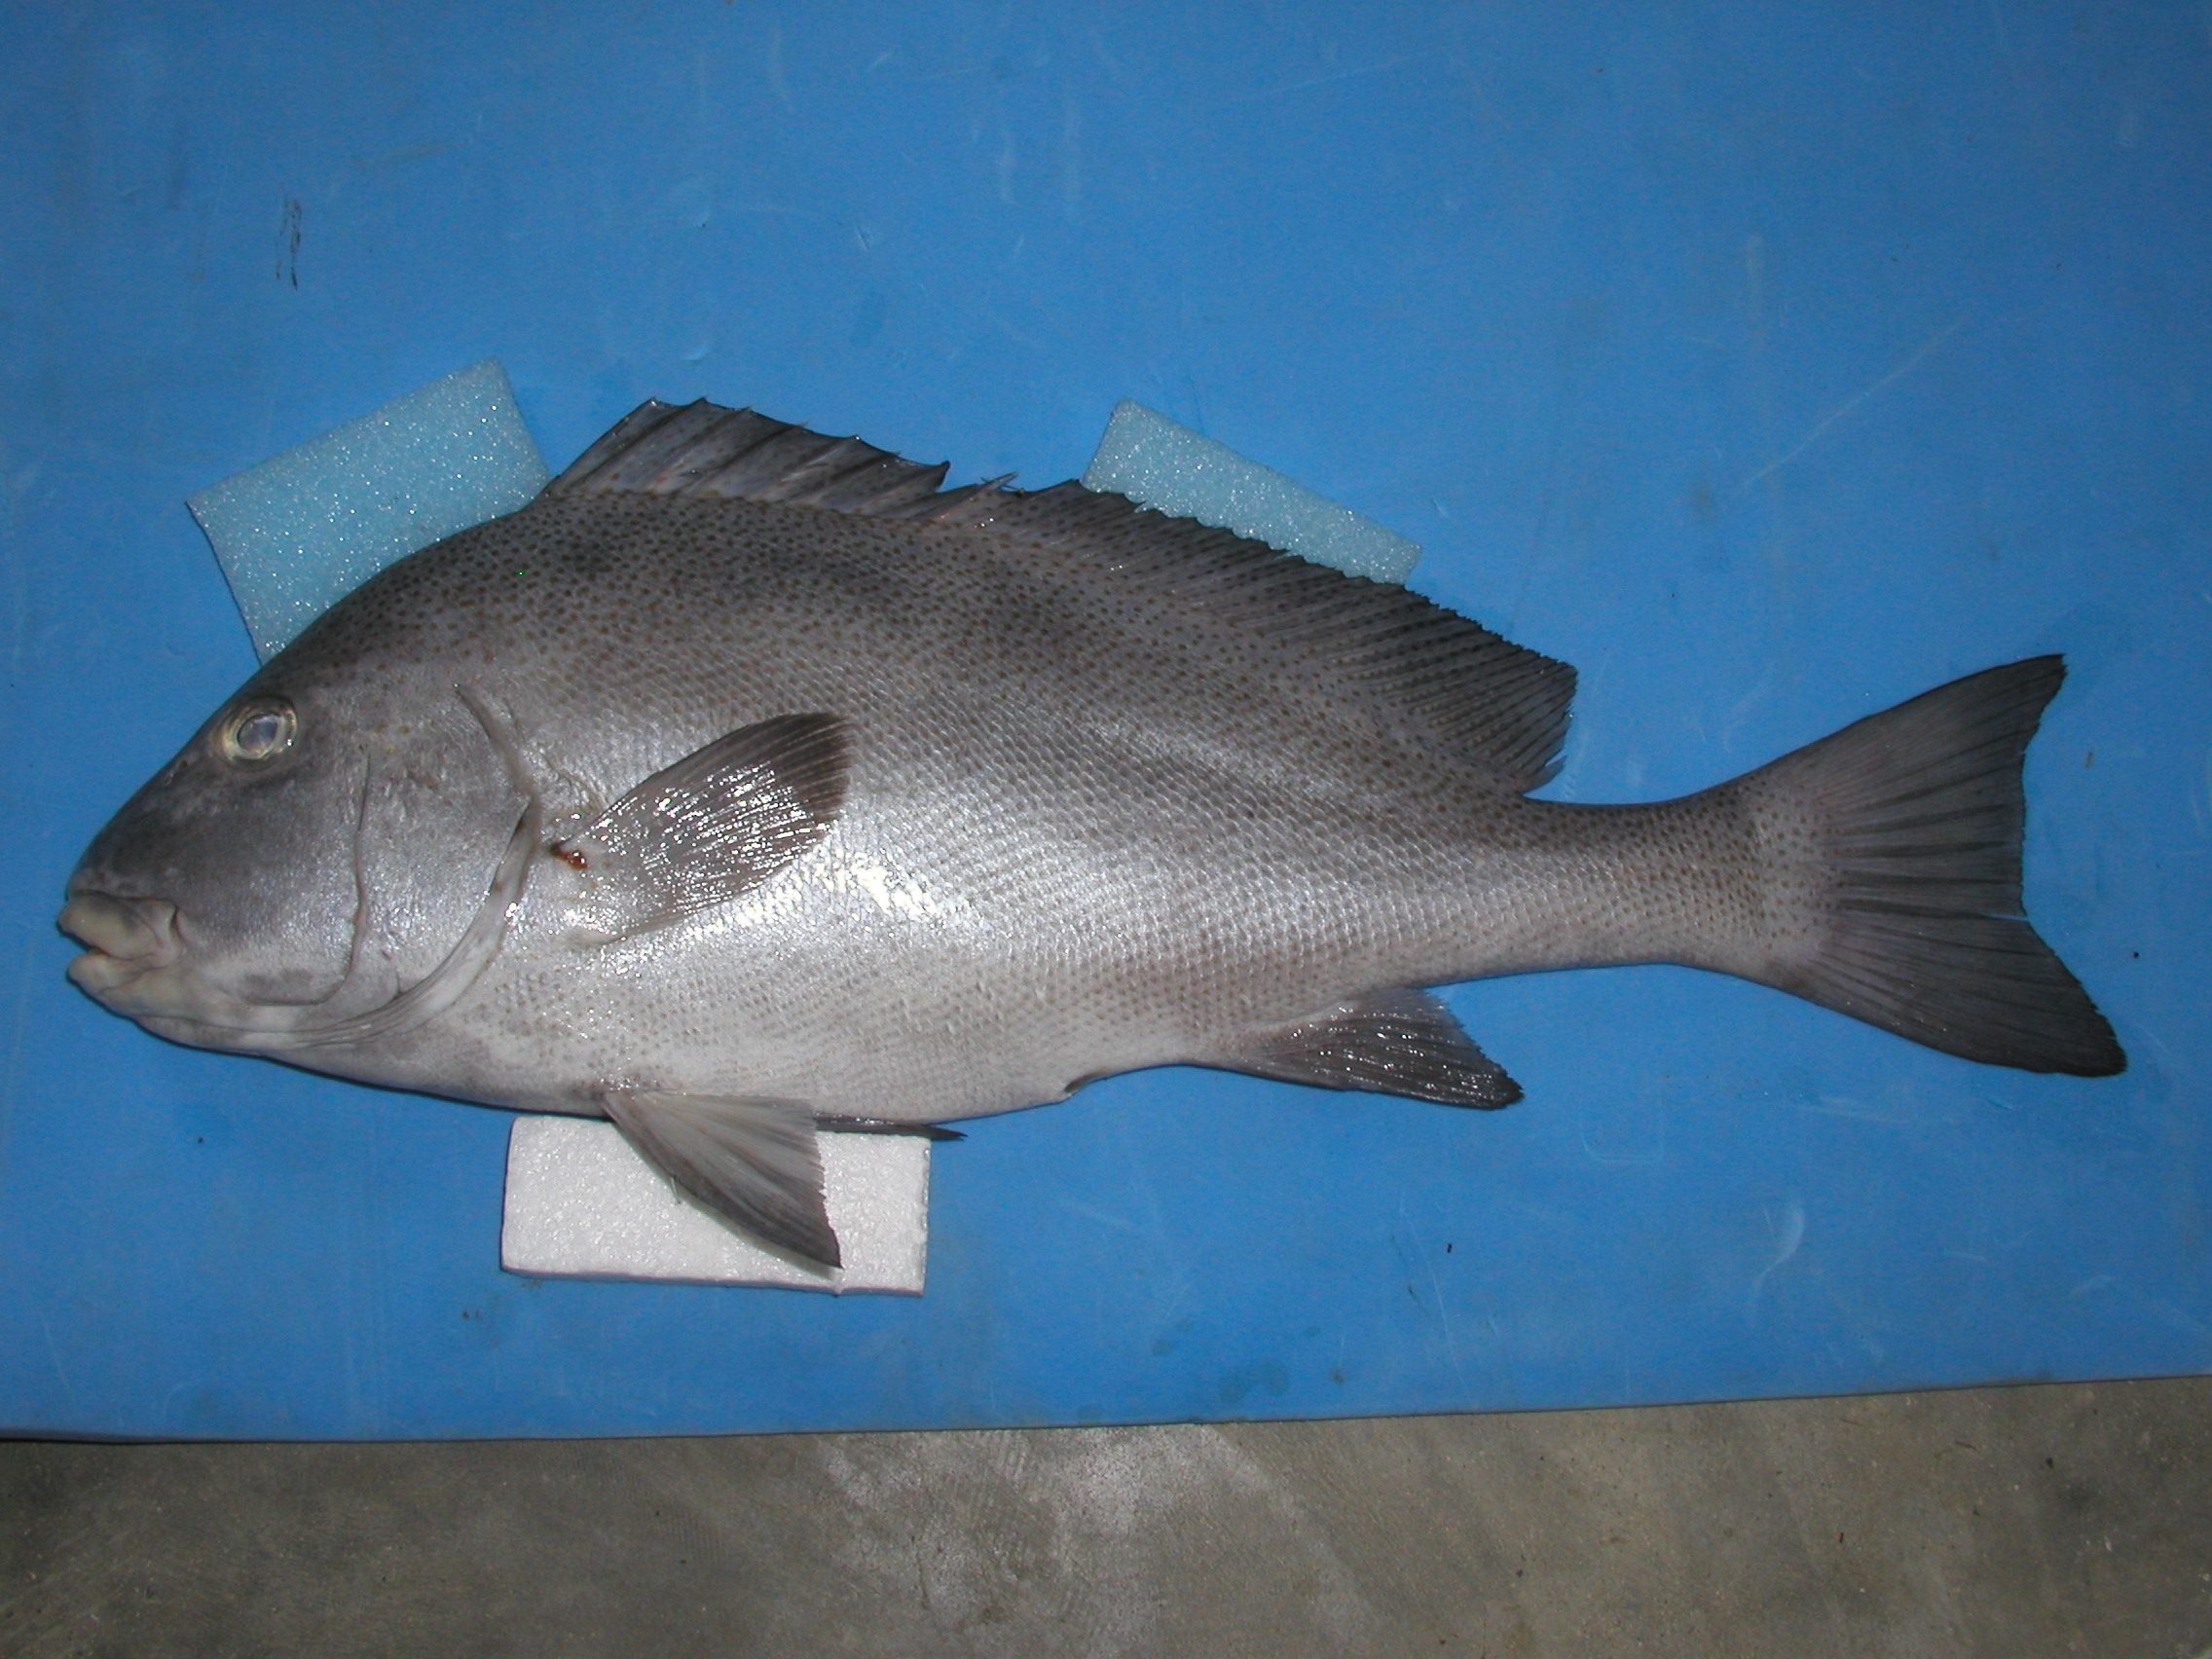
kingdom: Animalia
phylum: Chordata
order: Perciformes
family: Haemulidae
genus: Diagramma
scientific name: Diagramma centurio
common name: Sailfin rubberlip
